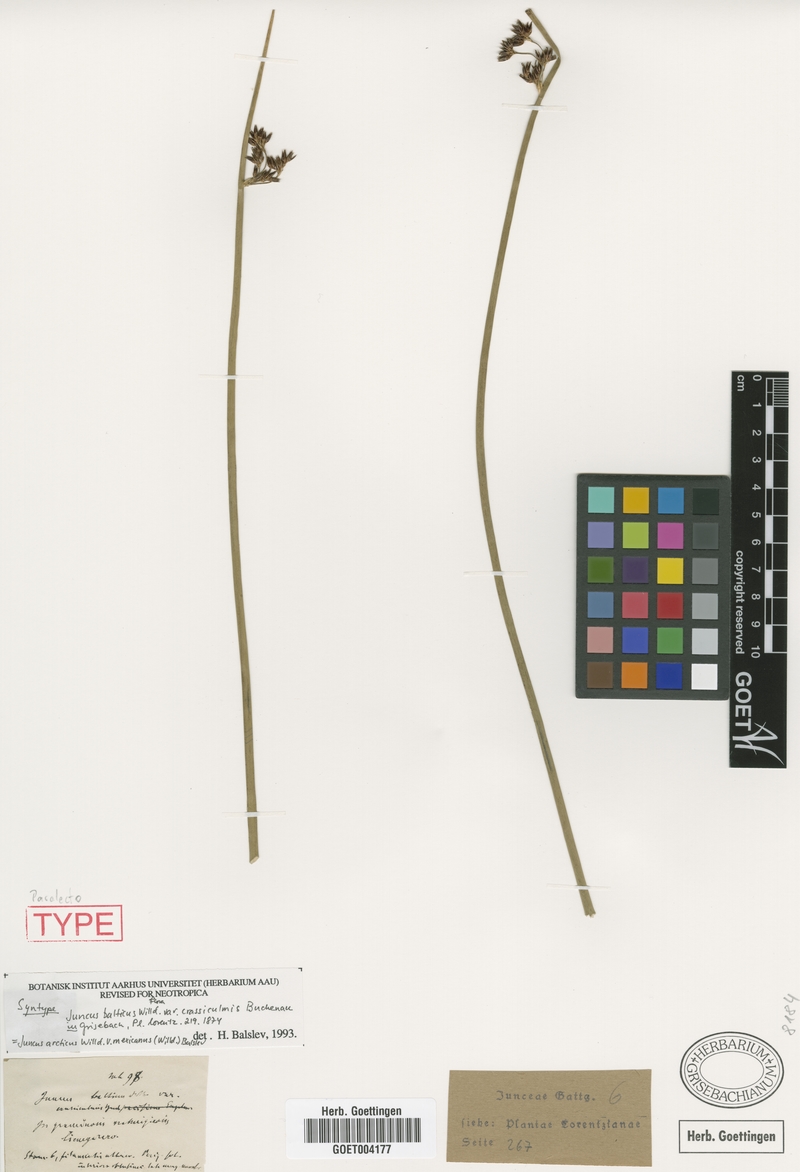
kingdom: Plantae
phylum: Tracheophyta
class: Liliopsida
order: Poales
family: Juncaceae
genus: Juncus
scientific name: Juncus balticus
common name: Baltic rush
